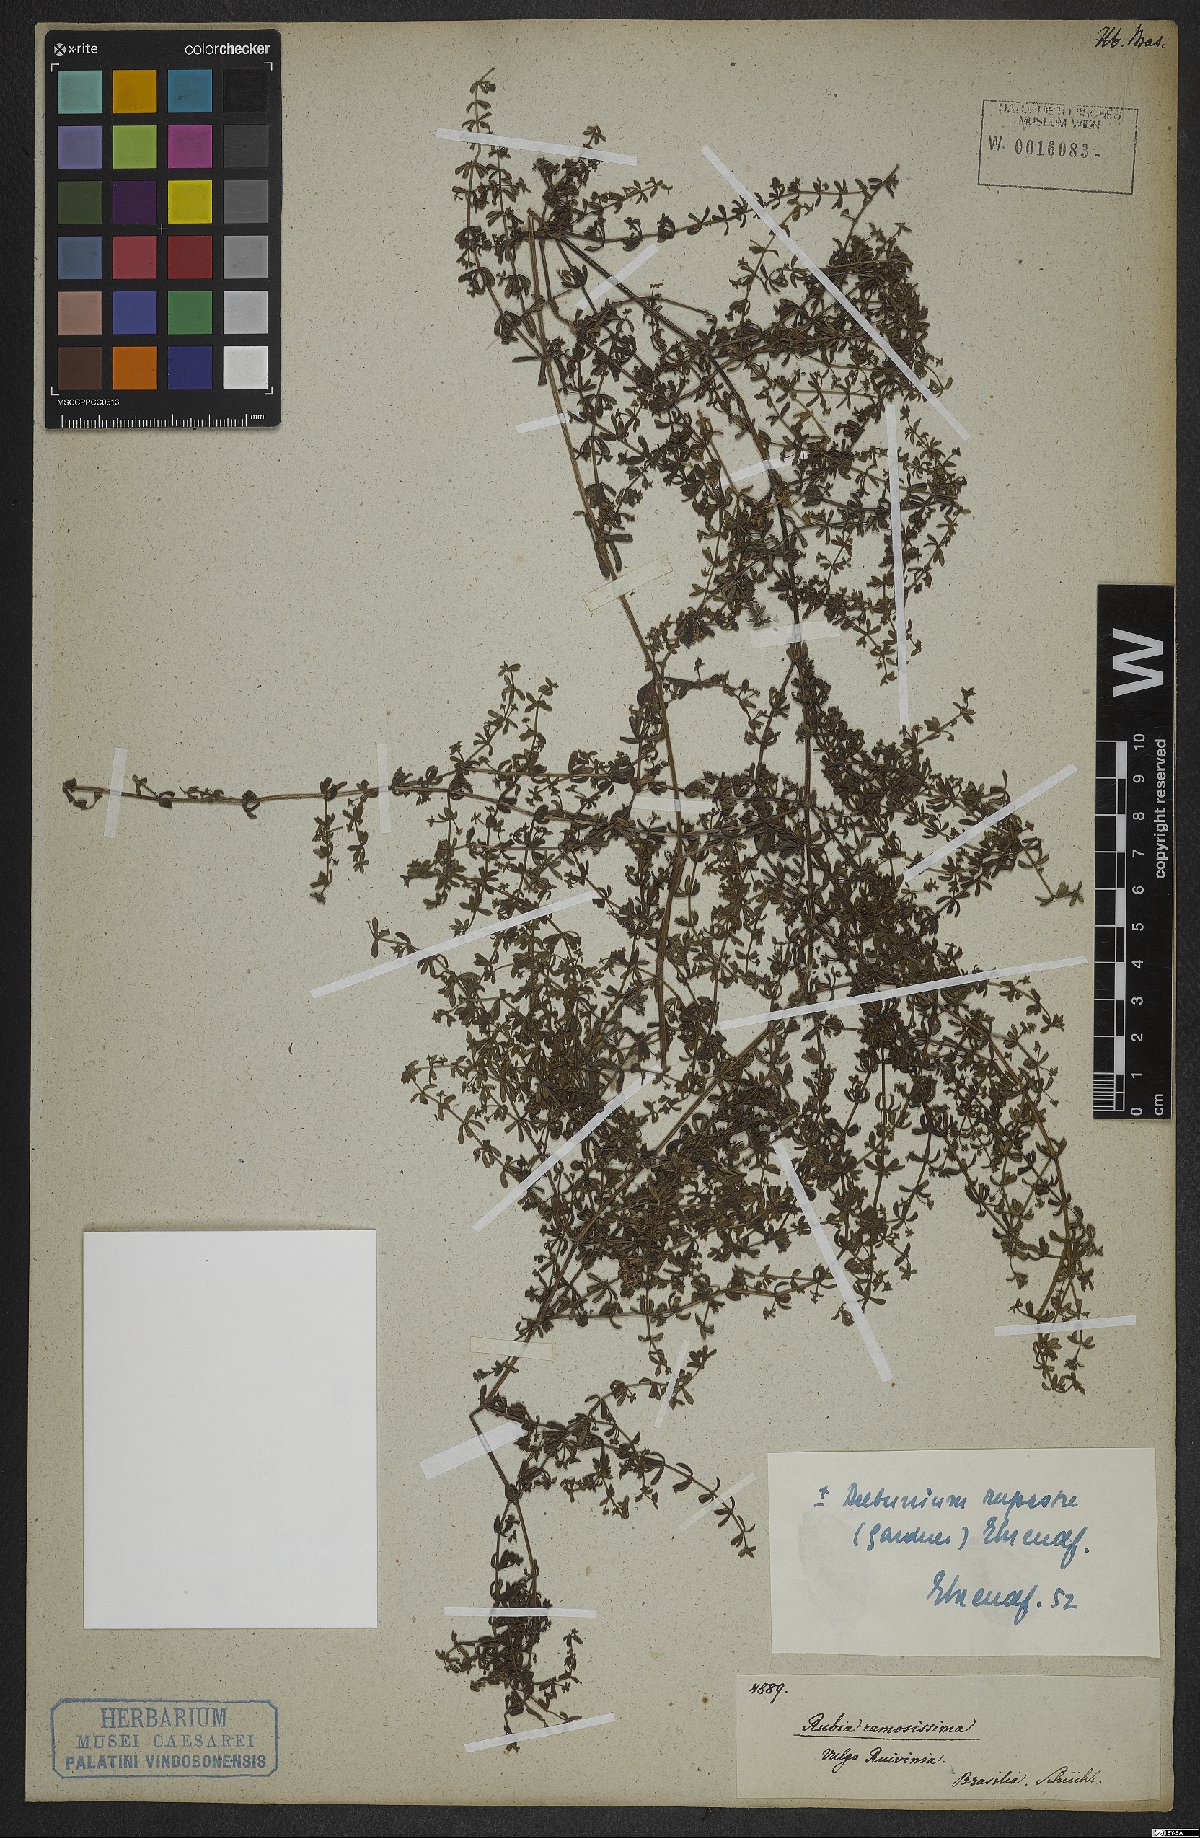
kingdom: Plantae
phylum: Tracheophyta
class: Magnoliopsida
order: Gentianales
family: Rubiaceae
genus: Galium
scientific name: Galium hypocarpium
